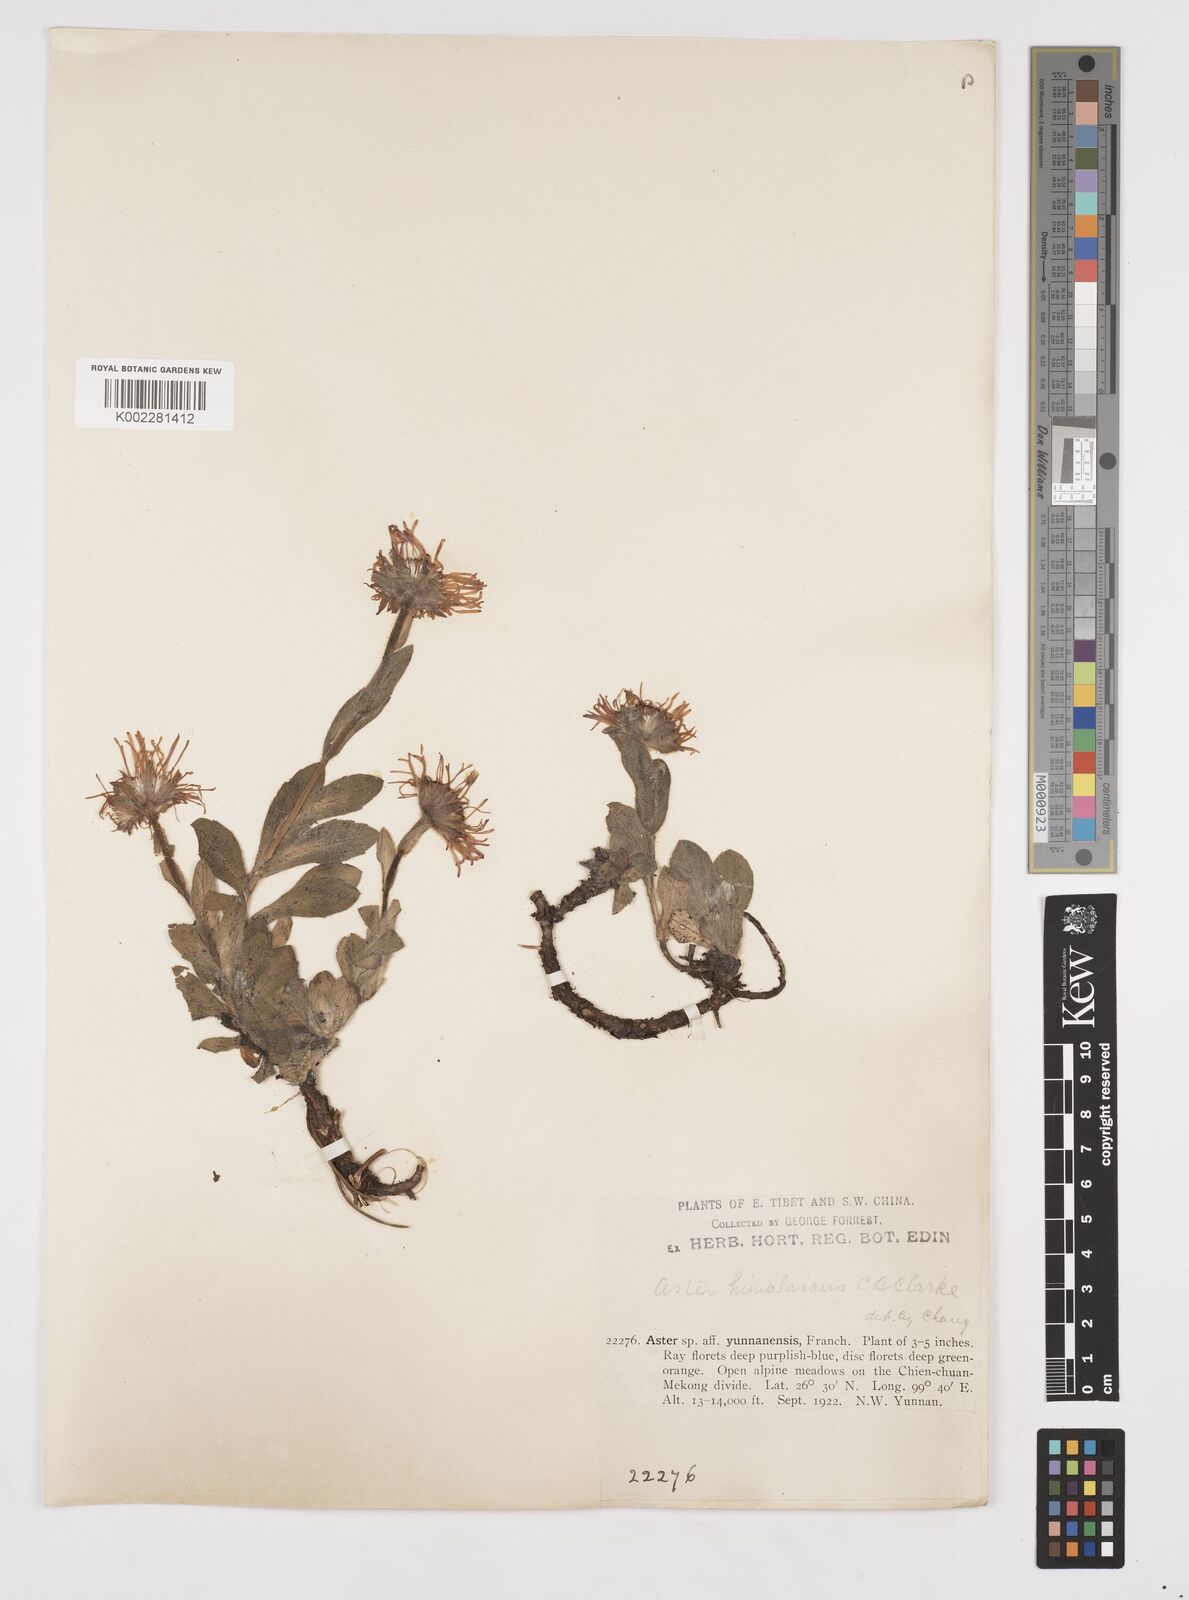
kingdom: Plantae
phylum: Tracheophyta
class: Magnoliopsida
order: Asterales
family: Asteraceae
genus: Tibetiodes
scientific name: Tibetiodes himalaica
